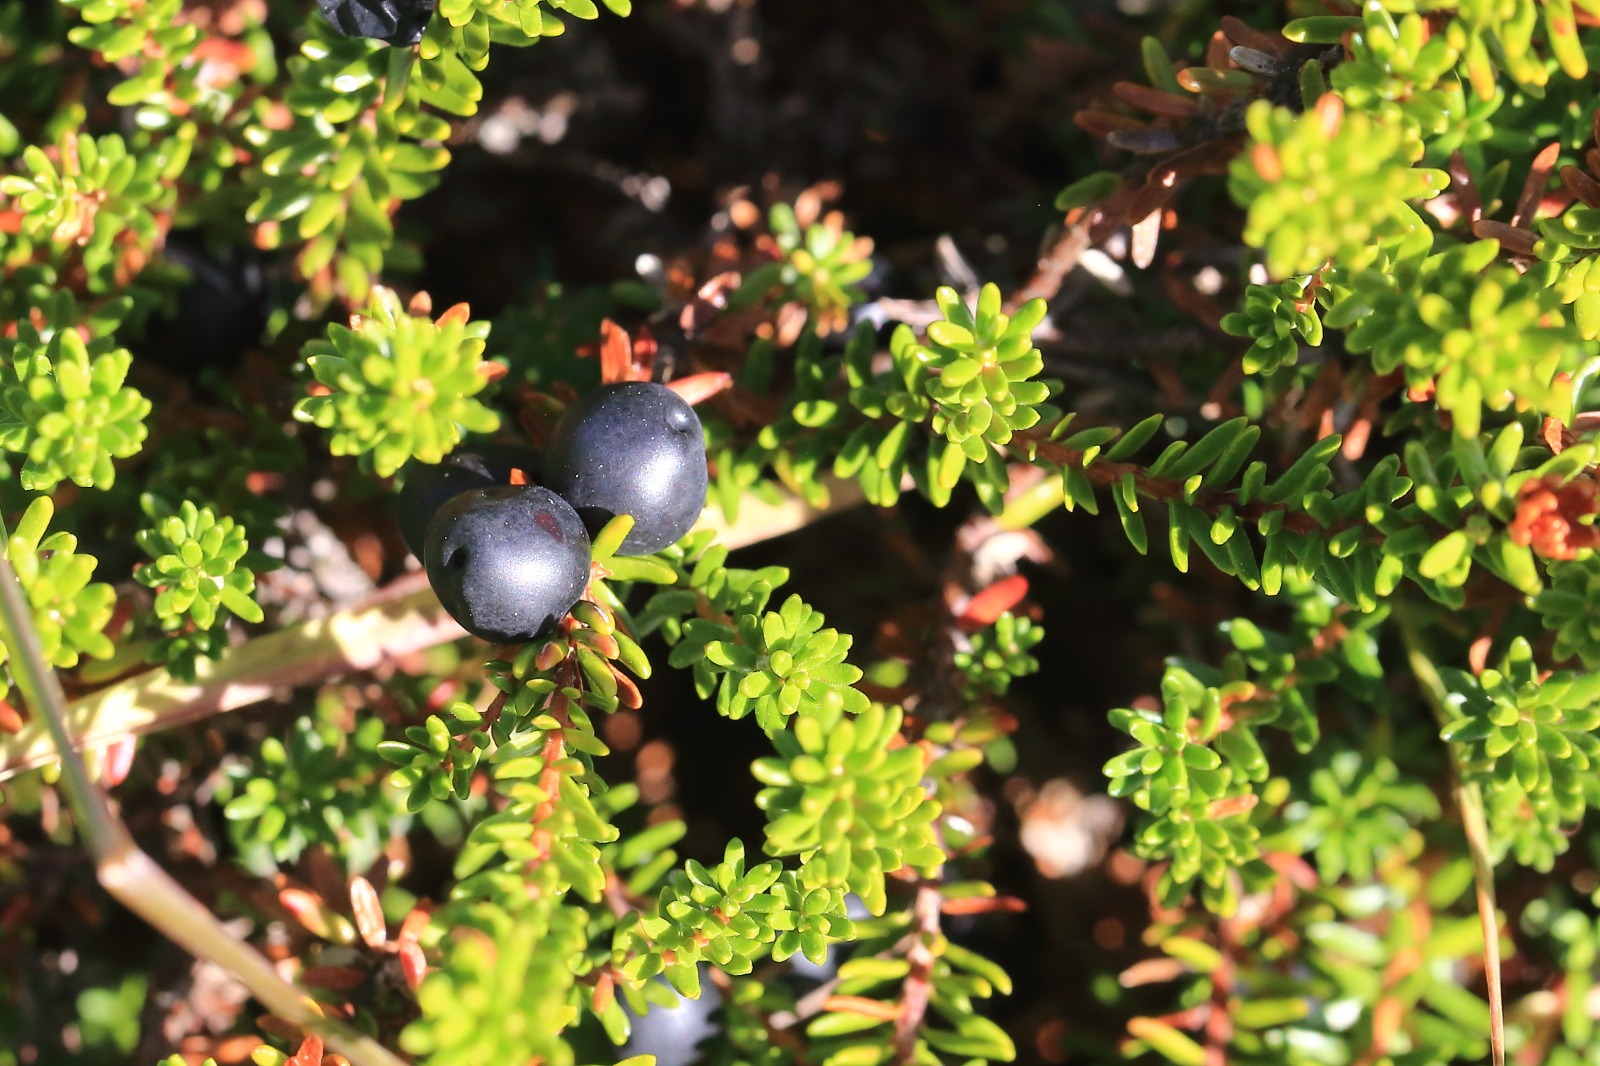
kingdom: Plantae
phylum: Tracheophyta
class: Magnoliopsida
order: Ericales
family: Ericaceae
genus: Empetrum
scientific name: Empetrum nigrum
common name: Revling
